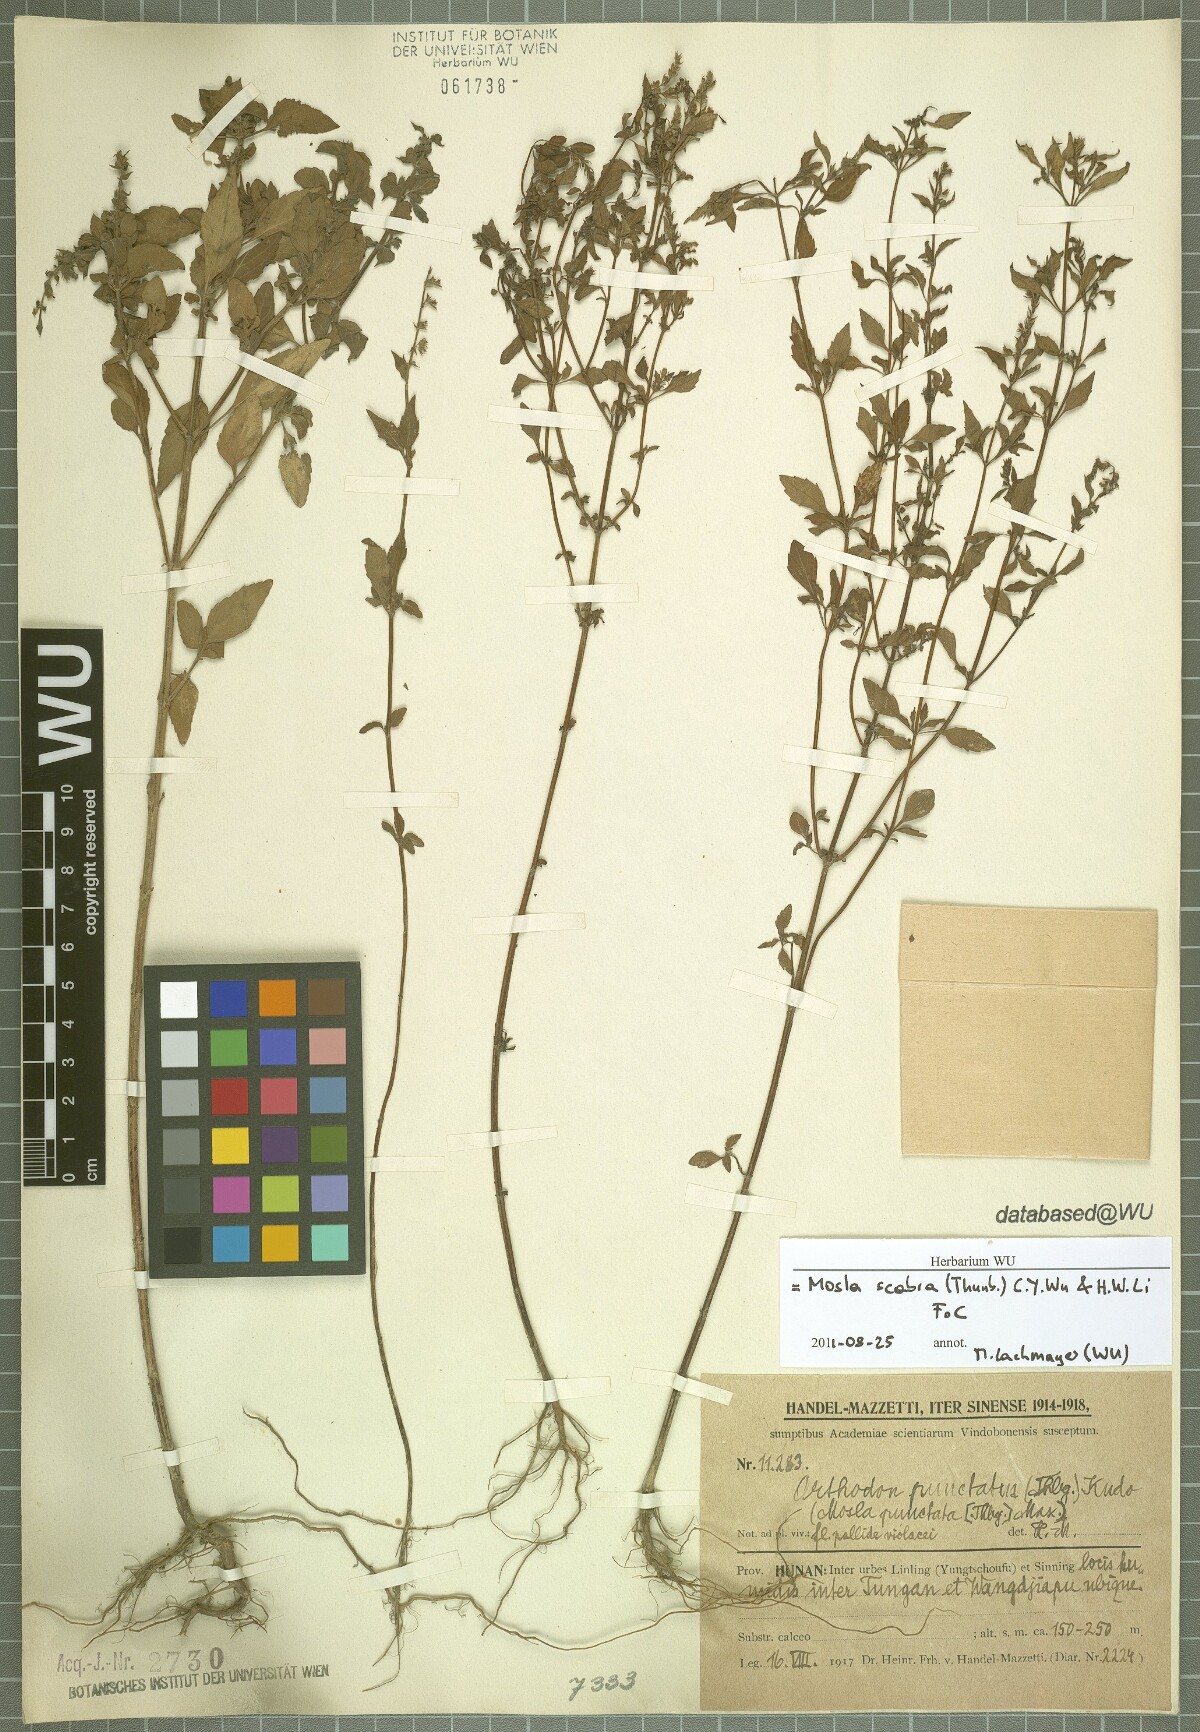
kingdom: Plantae
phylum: Tracheophyta
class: Magnoliopsida
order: Lamiales
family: Lamiaceae
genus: Mosla
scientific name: Mosla scabra
